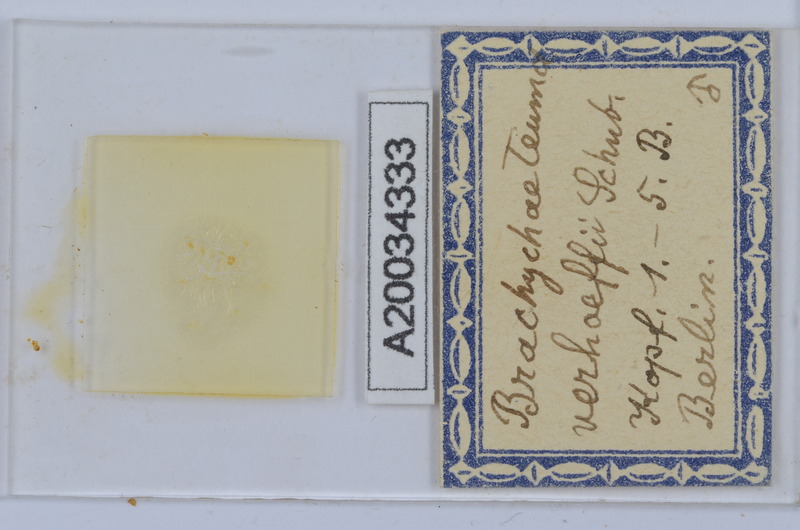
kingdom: Animalia
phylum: Arthropoda
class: Diplopoda
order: Chordeumatida
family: Brachychaeteumatidae
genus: Brachychaeteuma
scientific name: Brachychaeteuma bradeae
